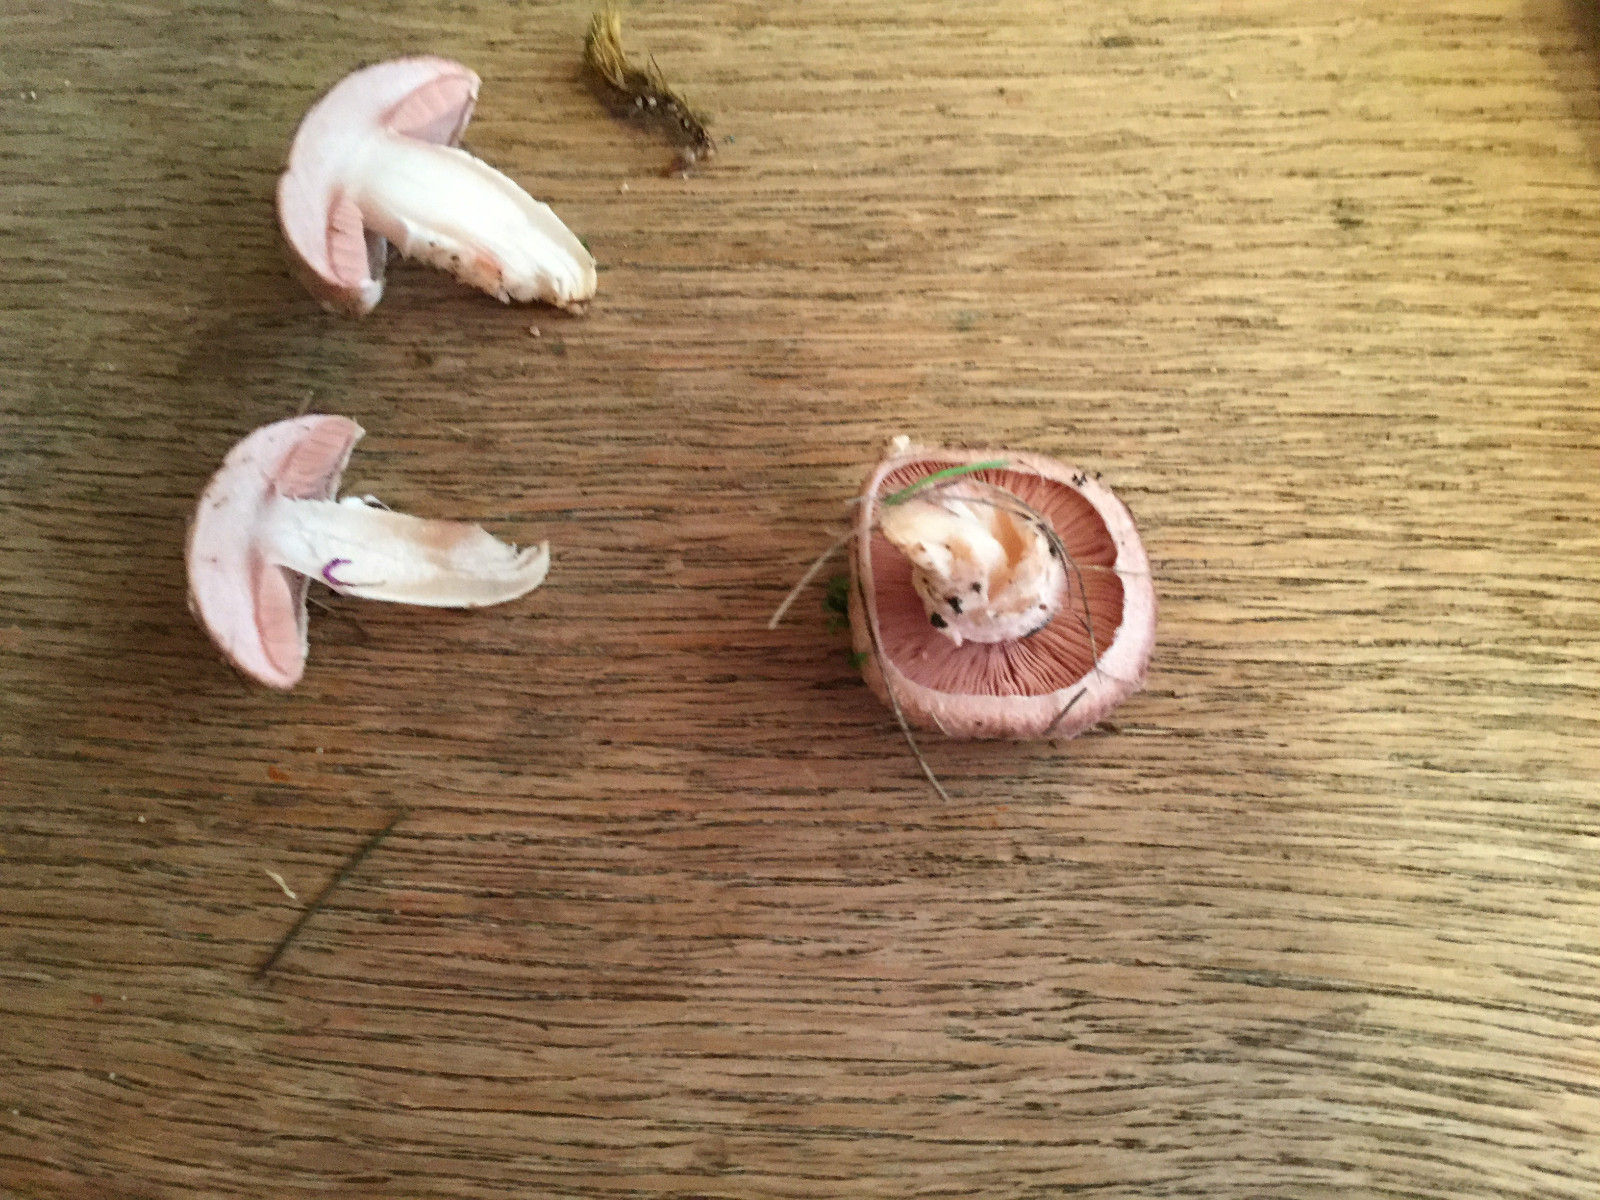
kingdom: Fungi
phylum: Basidiomycota
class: Agaricomycetes
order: Agaricales
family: Agaricaceae
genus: Agaricus
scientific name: Agaricus
